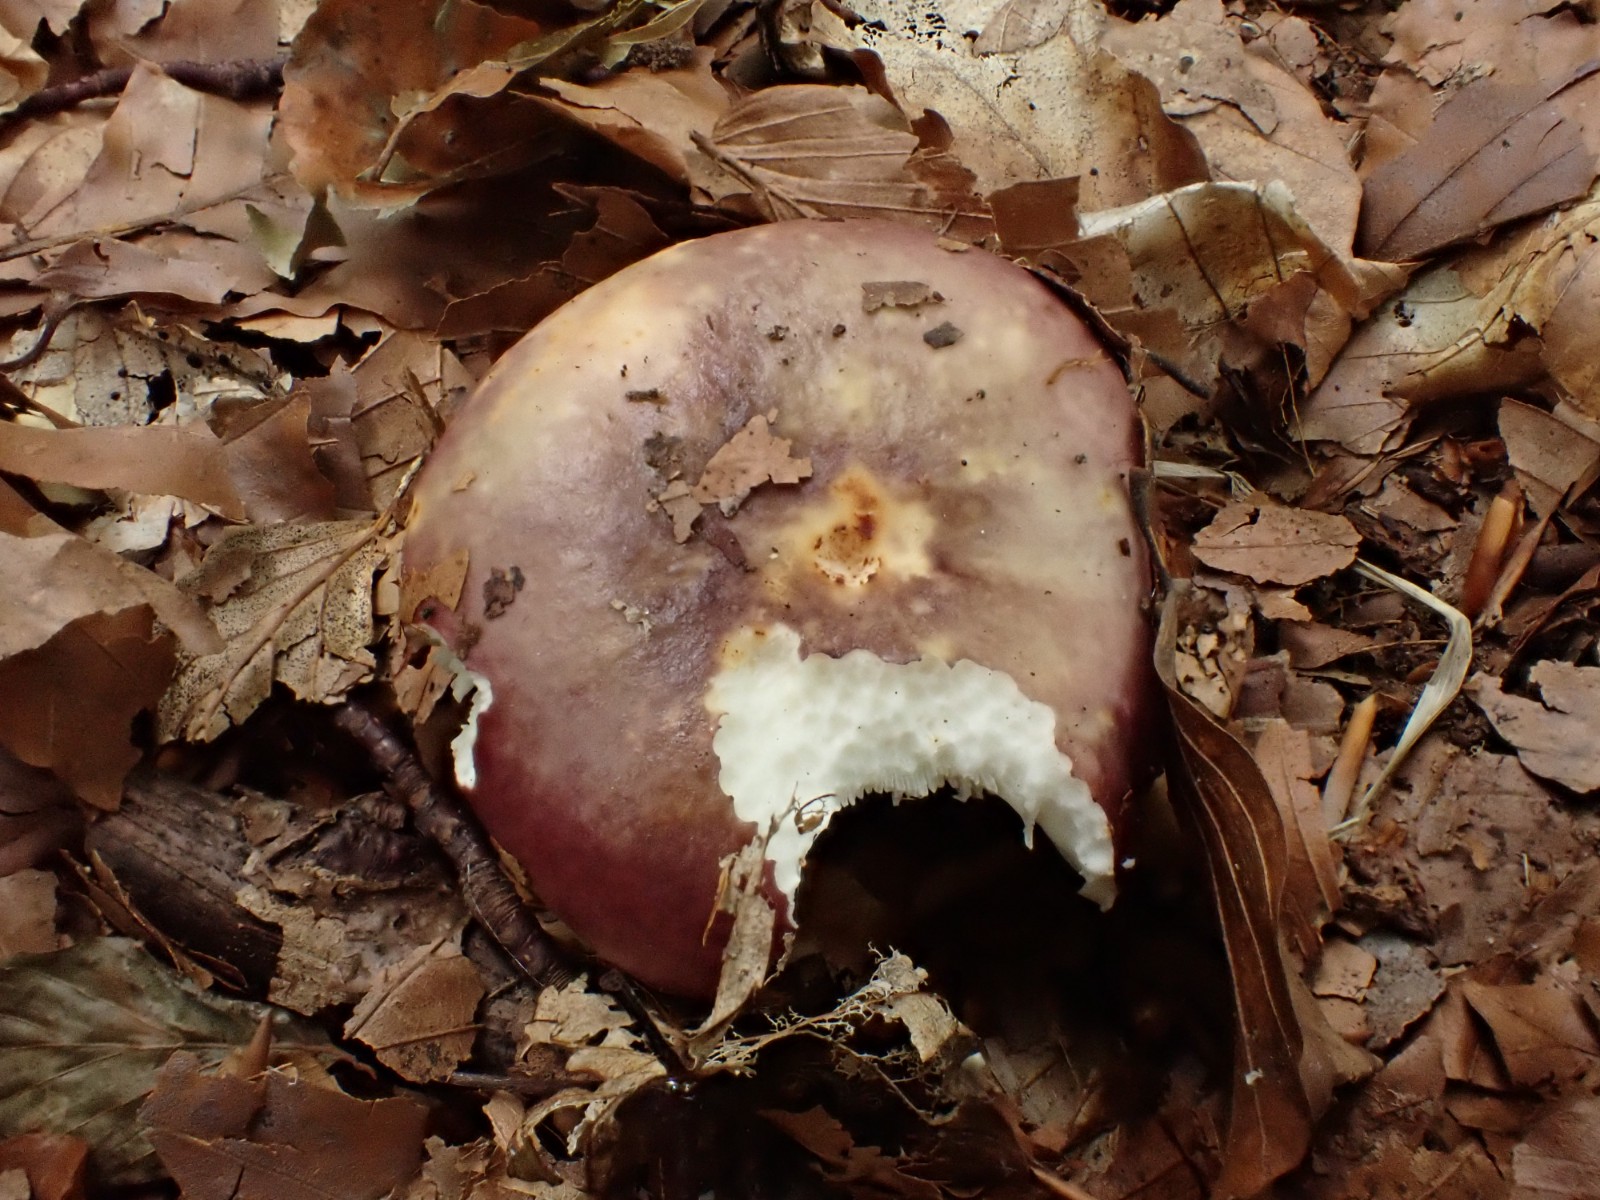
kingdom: Fungi
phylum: Basidiomycota
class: Agaricomycetes
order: Russulales
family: Russulaceae
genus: Russula
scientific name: Russula atropurpurea
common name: purpurbroget skørhat
